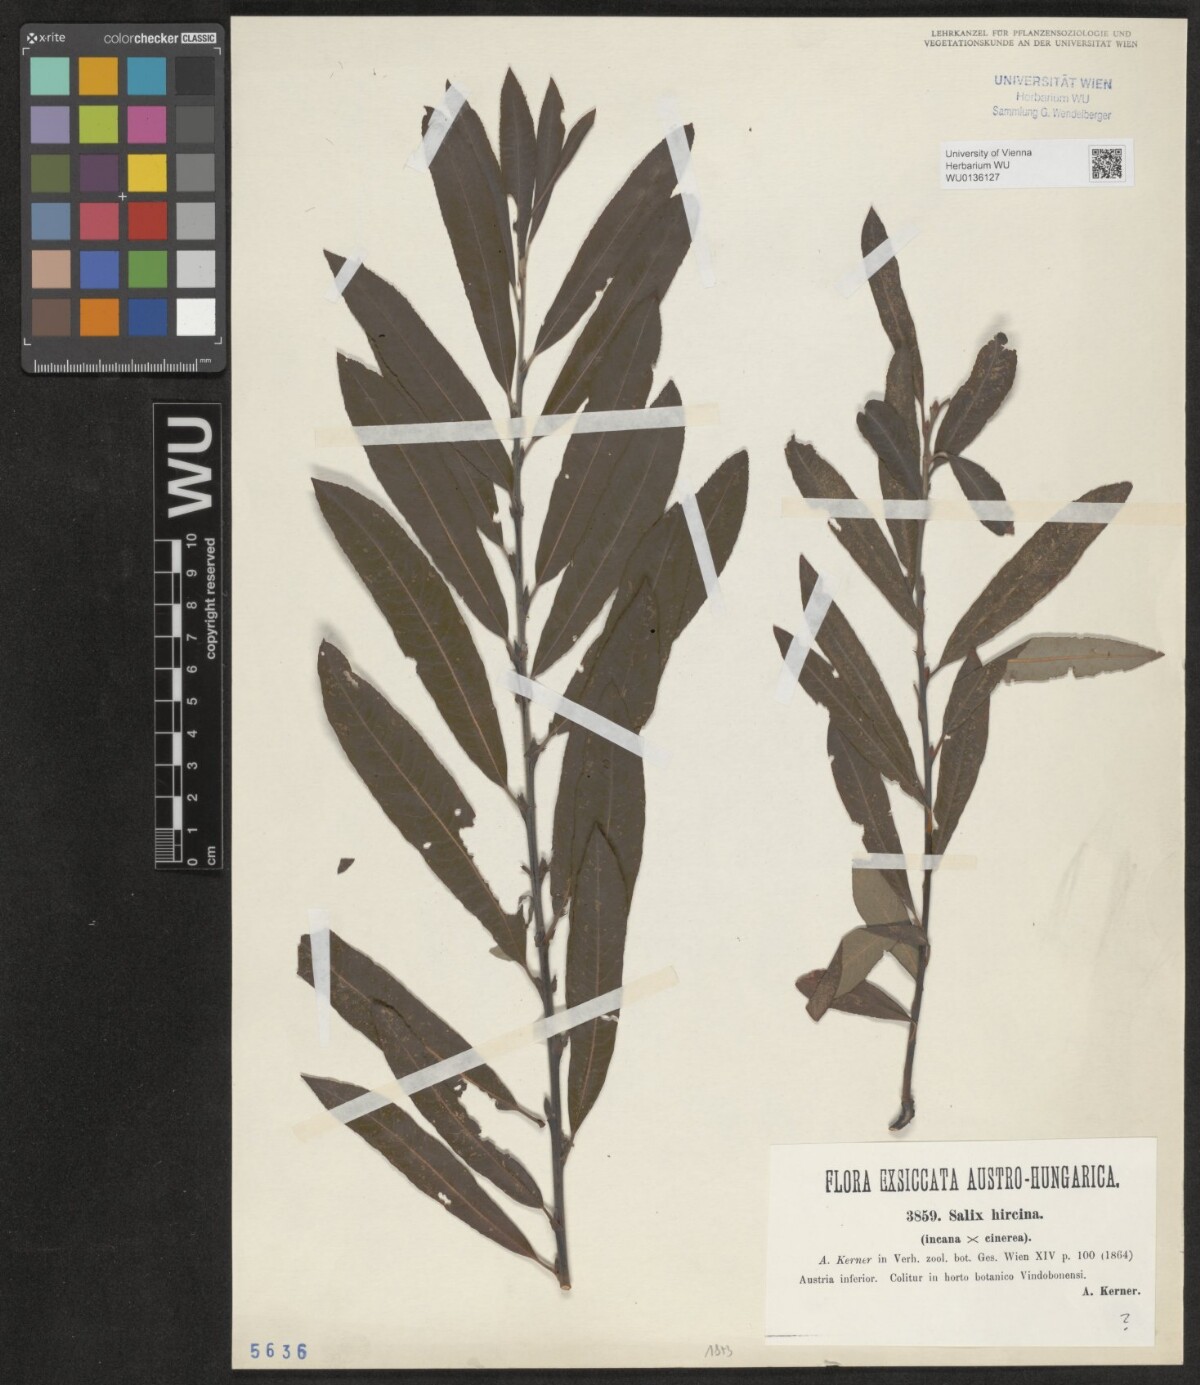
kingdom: Plantae
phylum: Tracheophyta
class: Magnoliopsida
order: Malpighiales
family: Salicaceae
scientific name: Salicaceae
